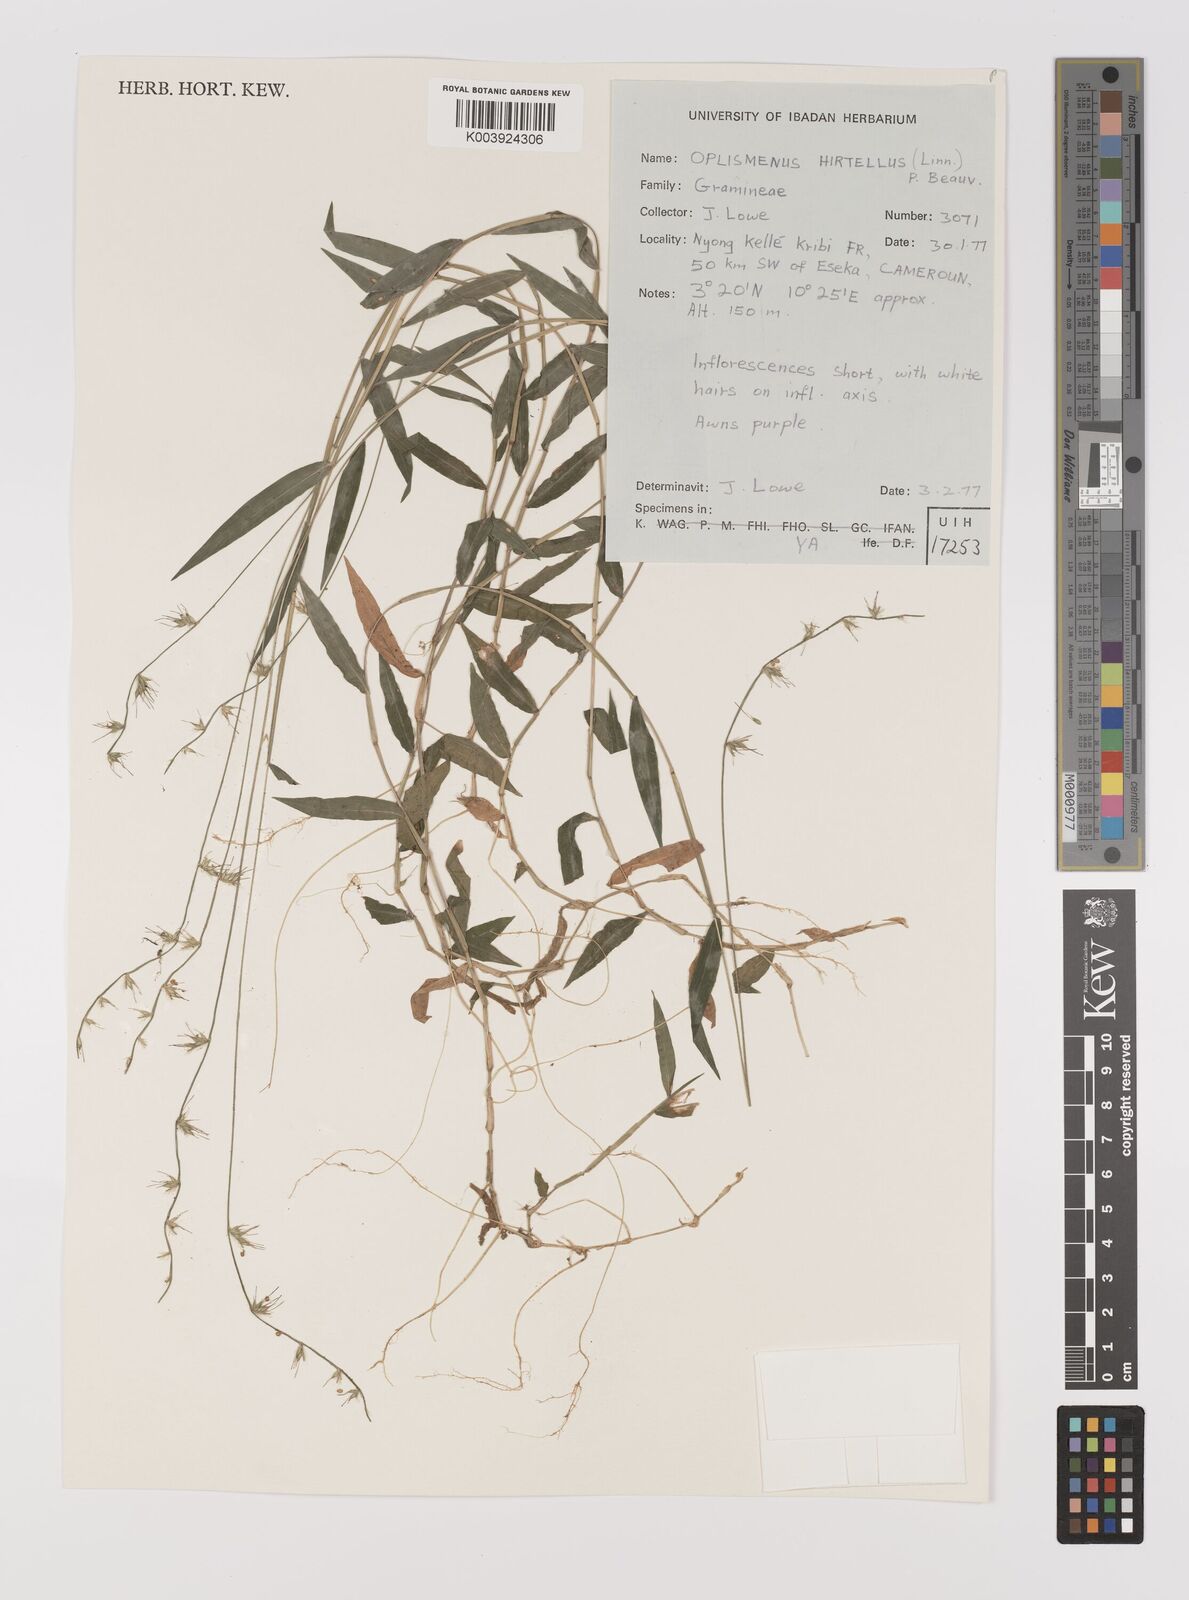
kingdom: Plantae
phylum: Tracheophyta
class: Liliopsida
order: Poales
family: Poaceae
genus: Oplismenus
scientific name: Oplismenus hirtellus
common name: Basketgrass
